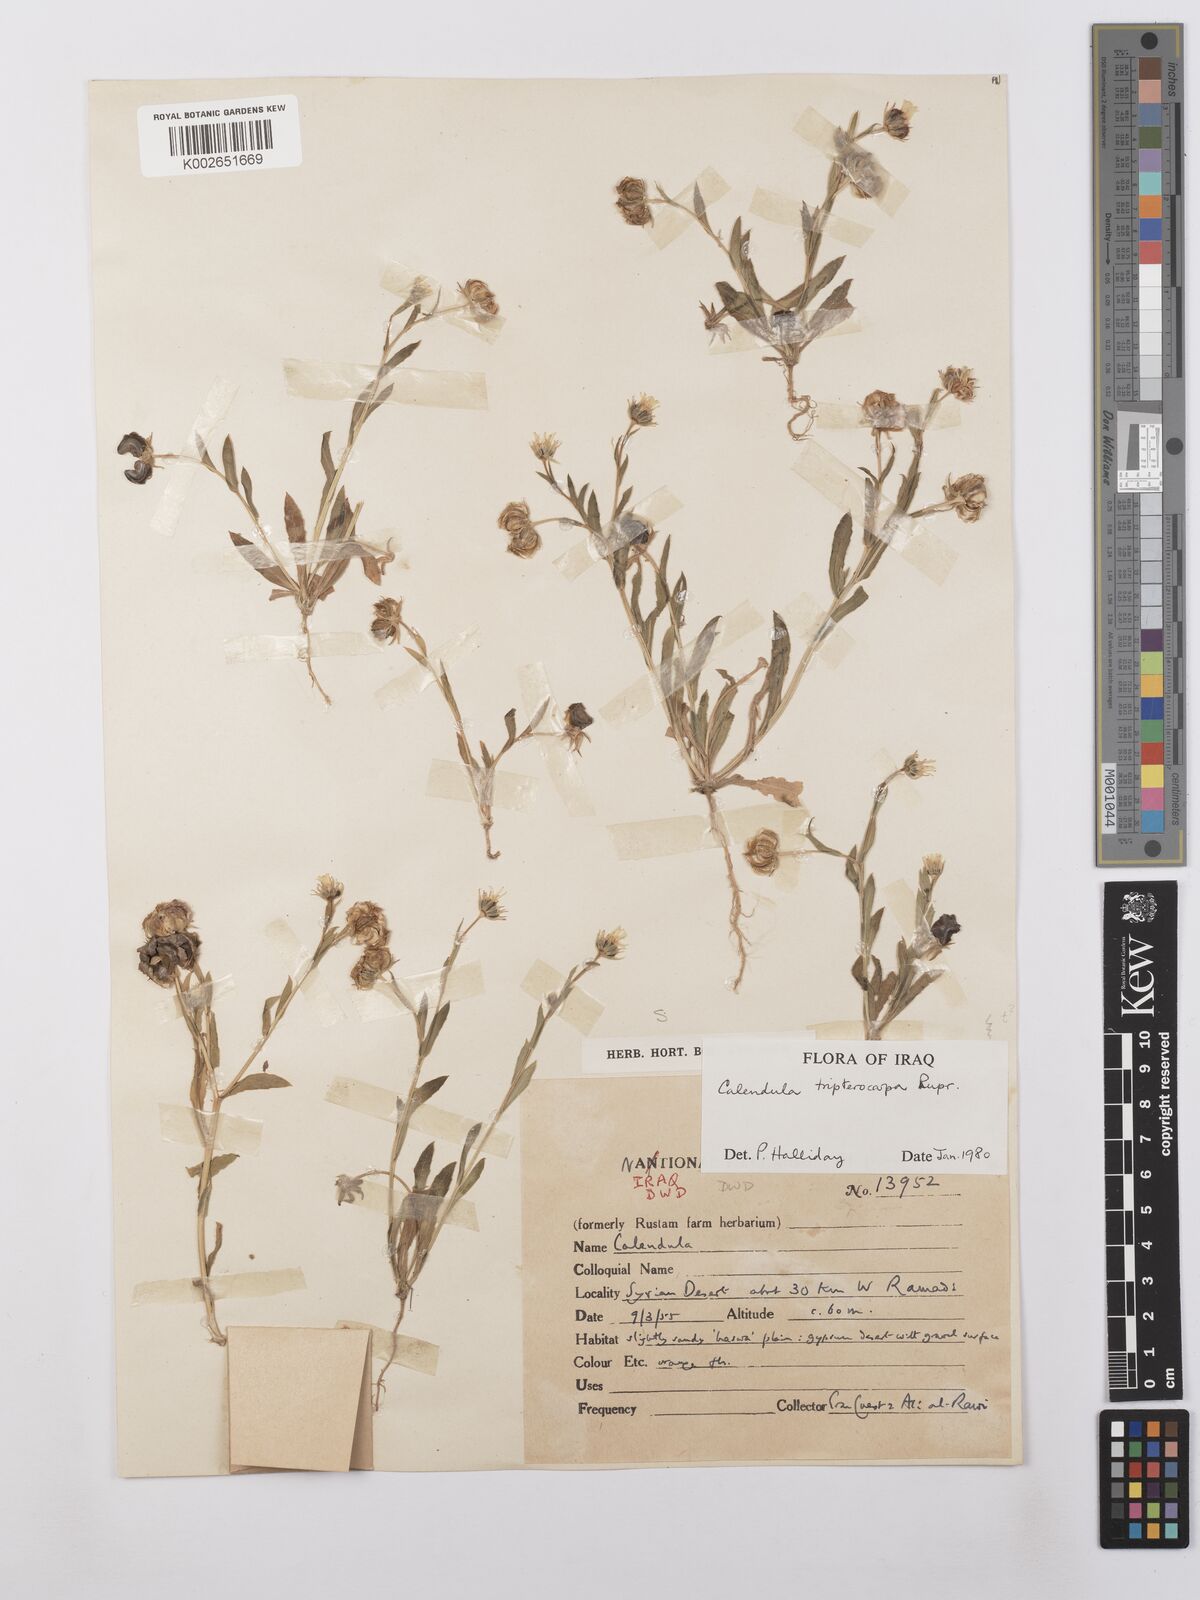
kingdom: Plantae
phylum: Tracheophyta
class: Magnoliopsida
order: Asterales
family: Asteraceae
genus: Calendula
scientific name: Calendula tripterocarpa
